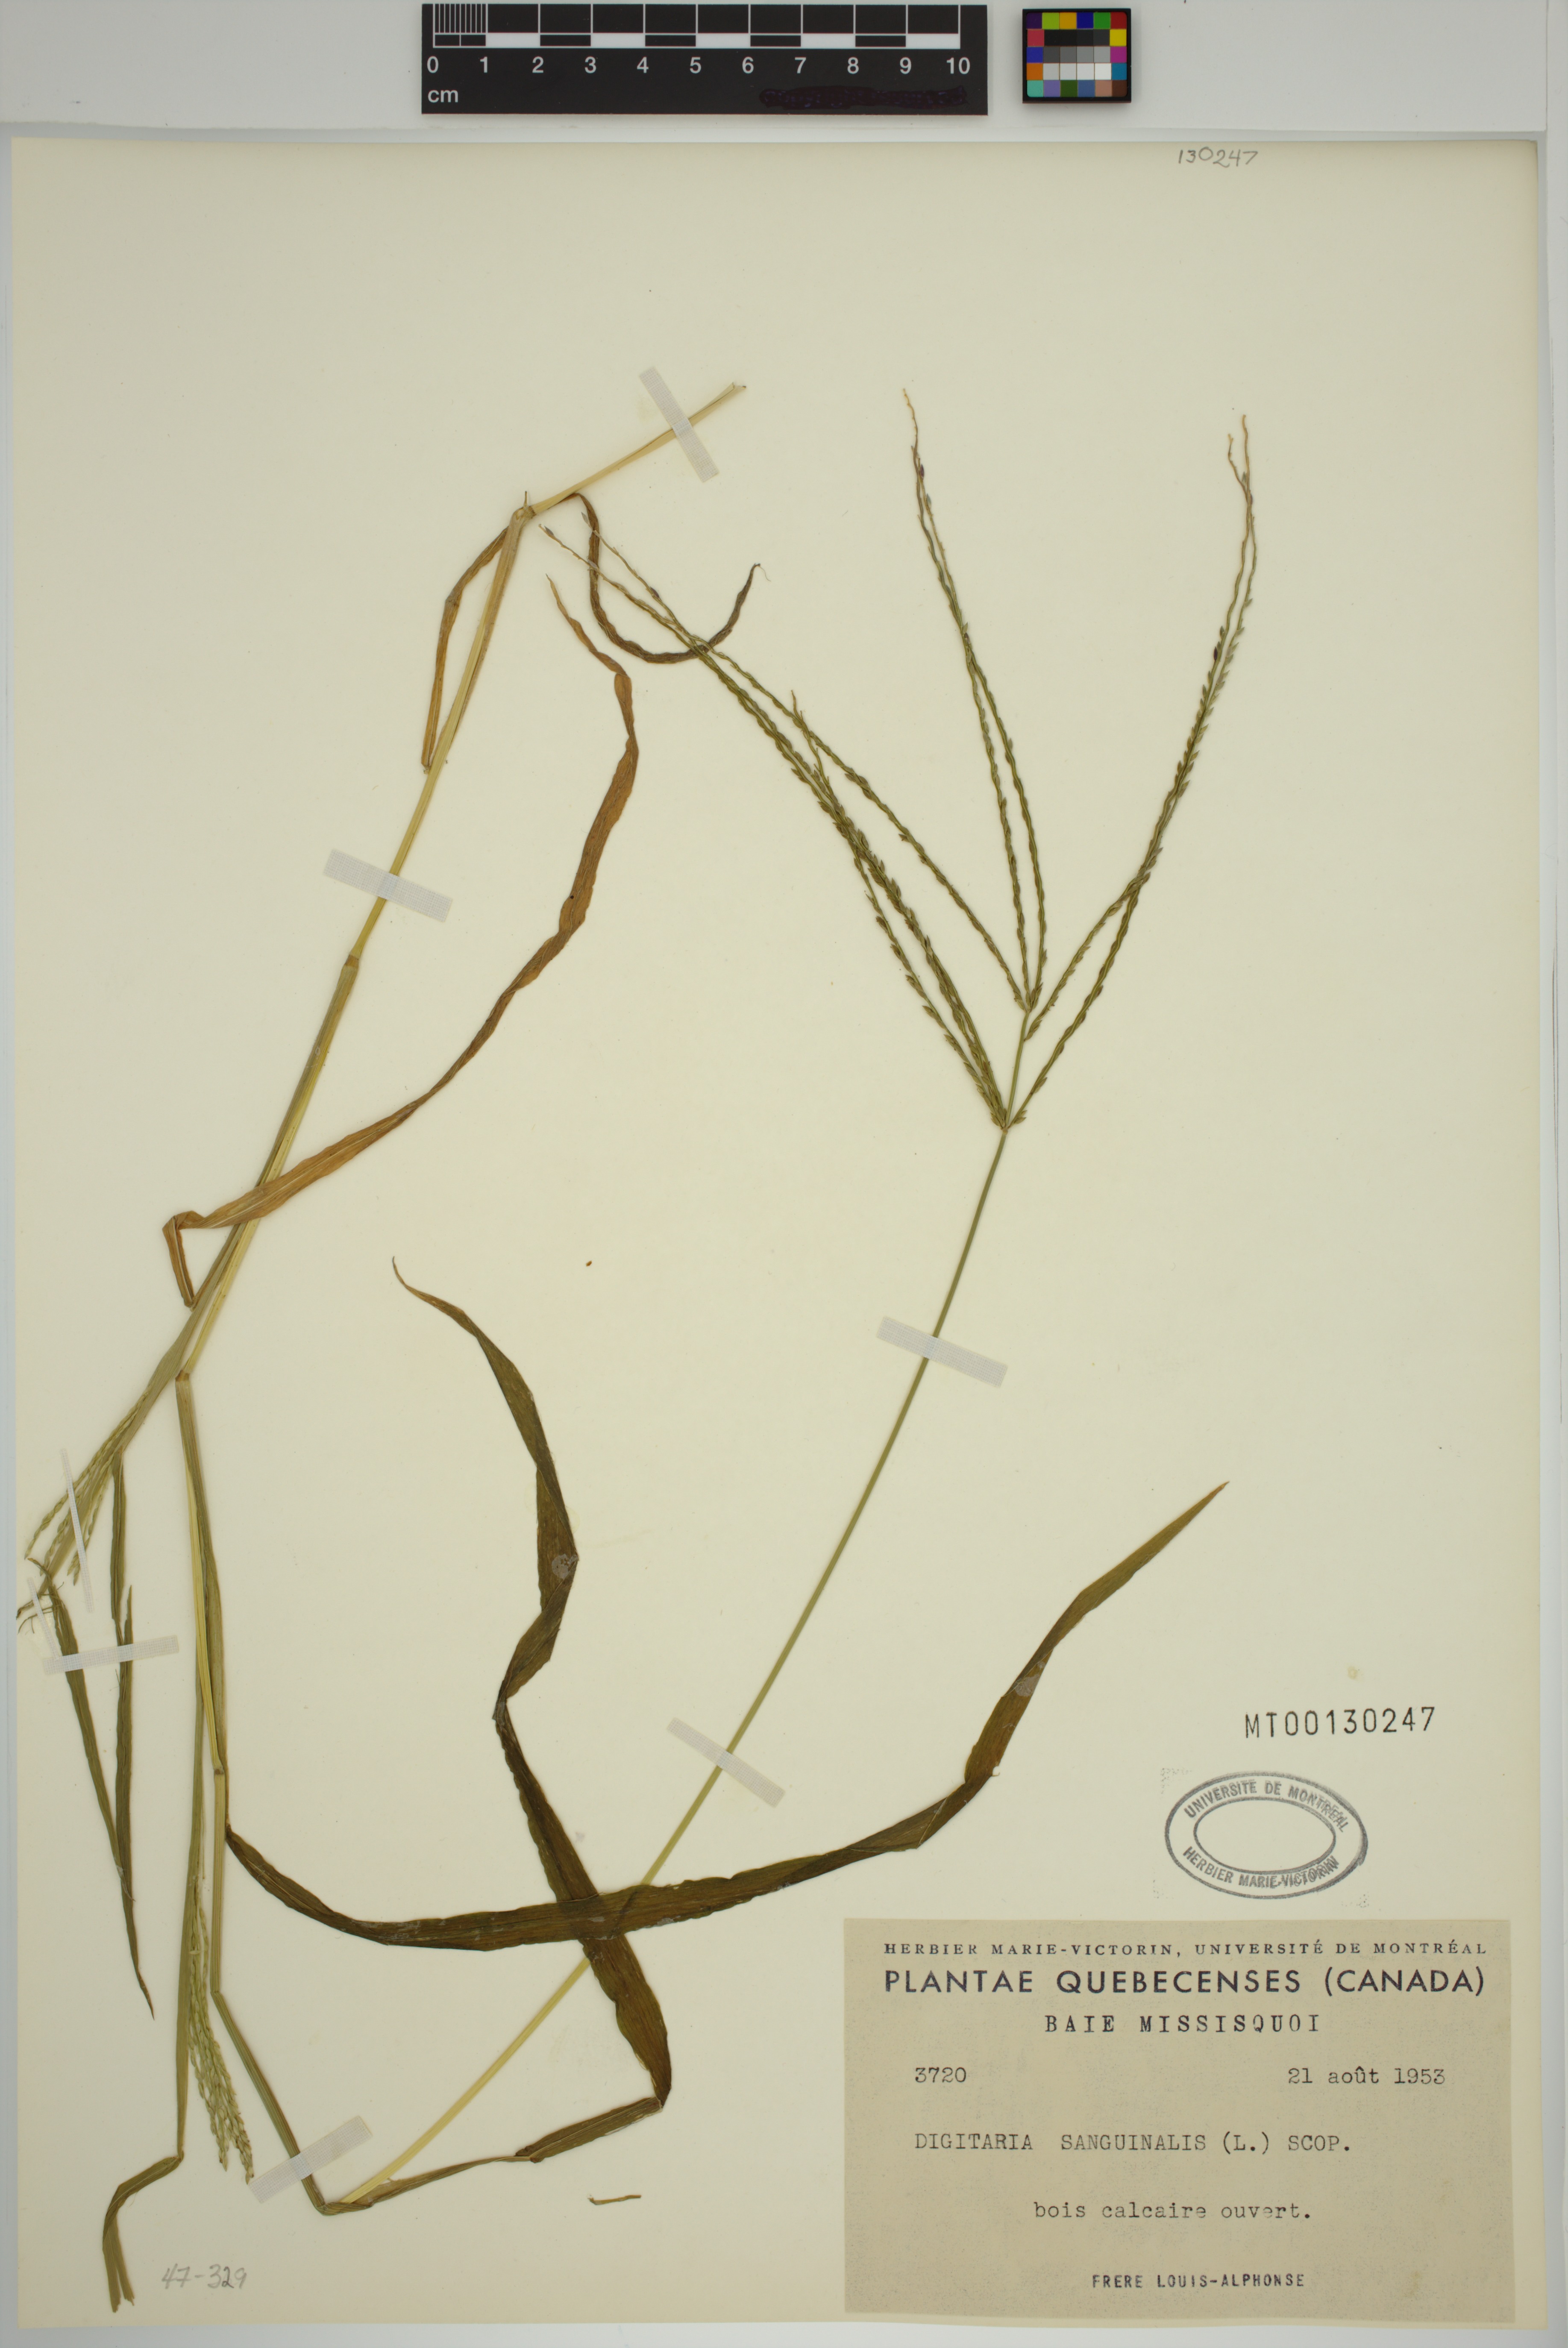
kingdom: Plantae
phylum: Tracheophyta
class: Liliopsida
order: Poales
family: Poaceae
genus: Digitaria
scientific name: Digitaria sanguinalis
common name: Hairy crabgrass
